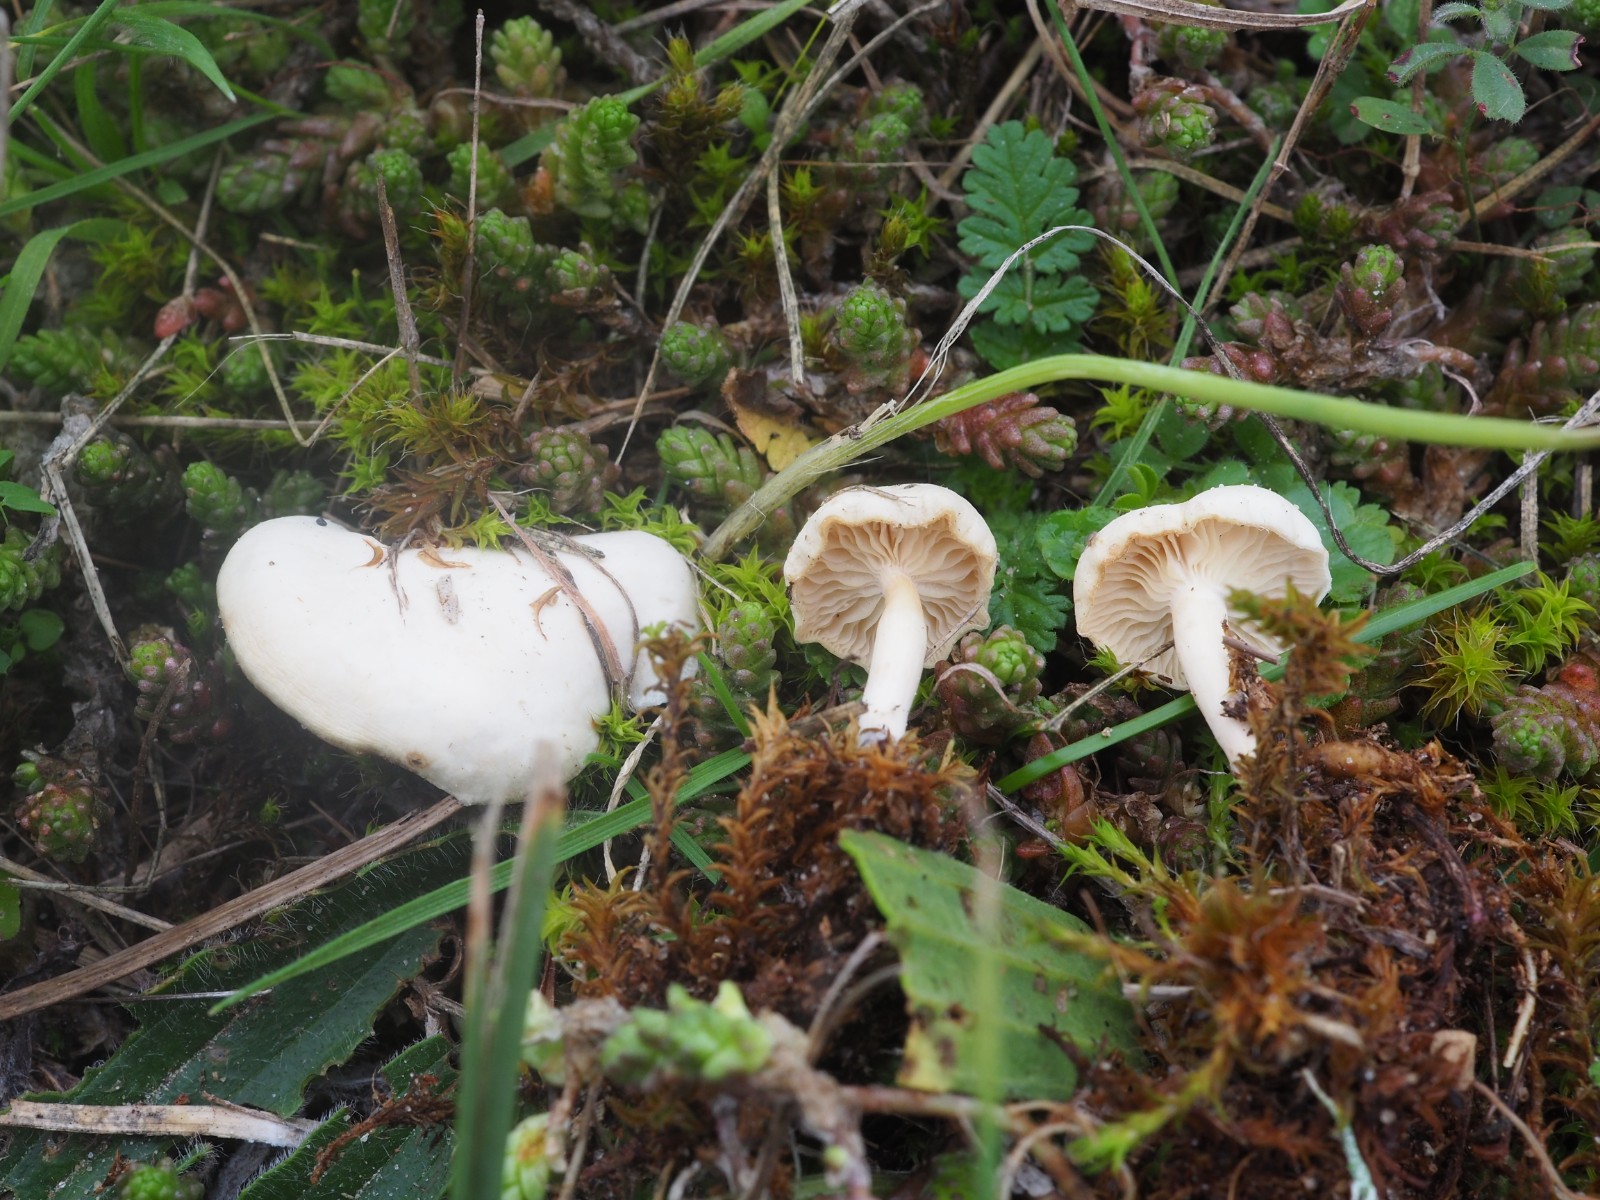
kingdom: Fungi
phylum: Basidiomycota
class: Agaricomycetes
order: Agaricales
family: Tricholomataceae
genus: Clitocybe
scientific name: Clitocybe
